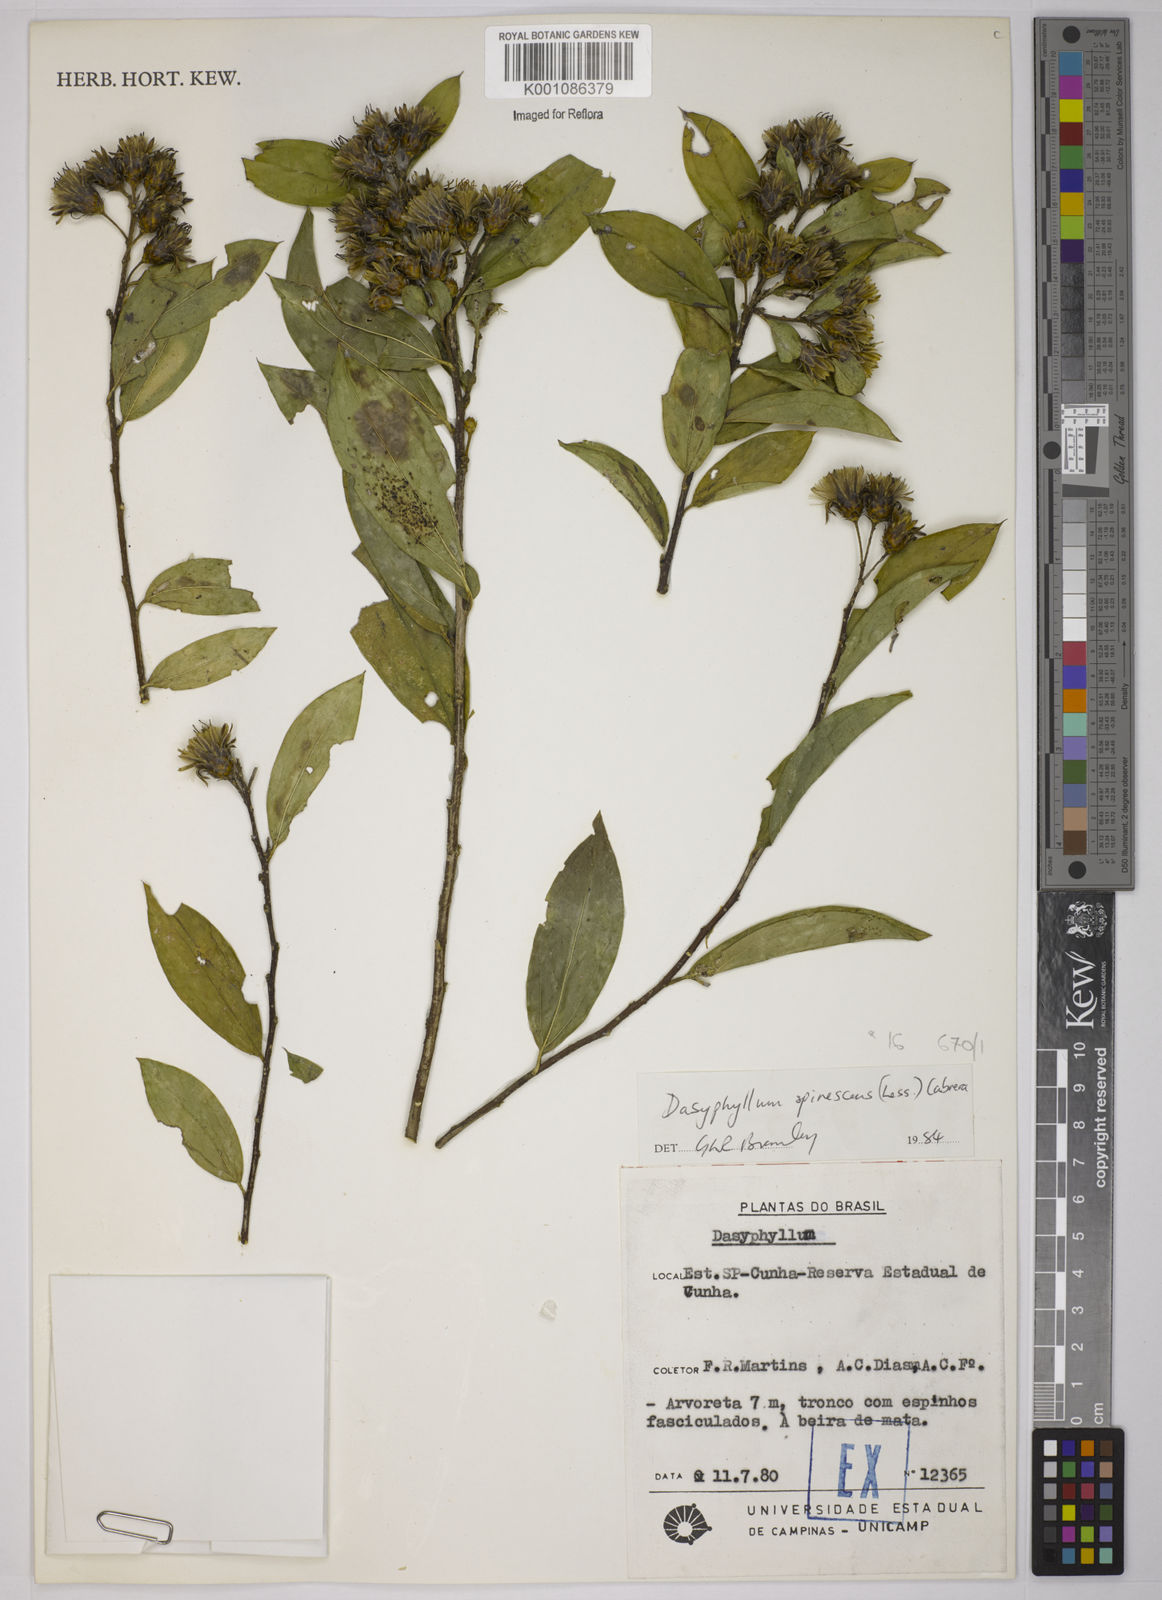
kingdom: Plantae
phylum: Tracheophyta
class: Magnoliopsida
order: Asterales
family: Asteraceae
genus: Dasyphyllum
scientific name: Dasyphyllum spinescens
